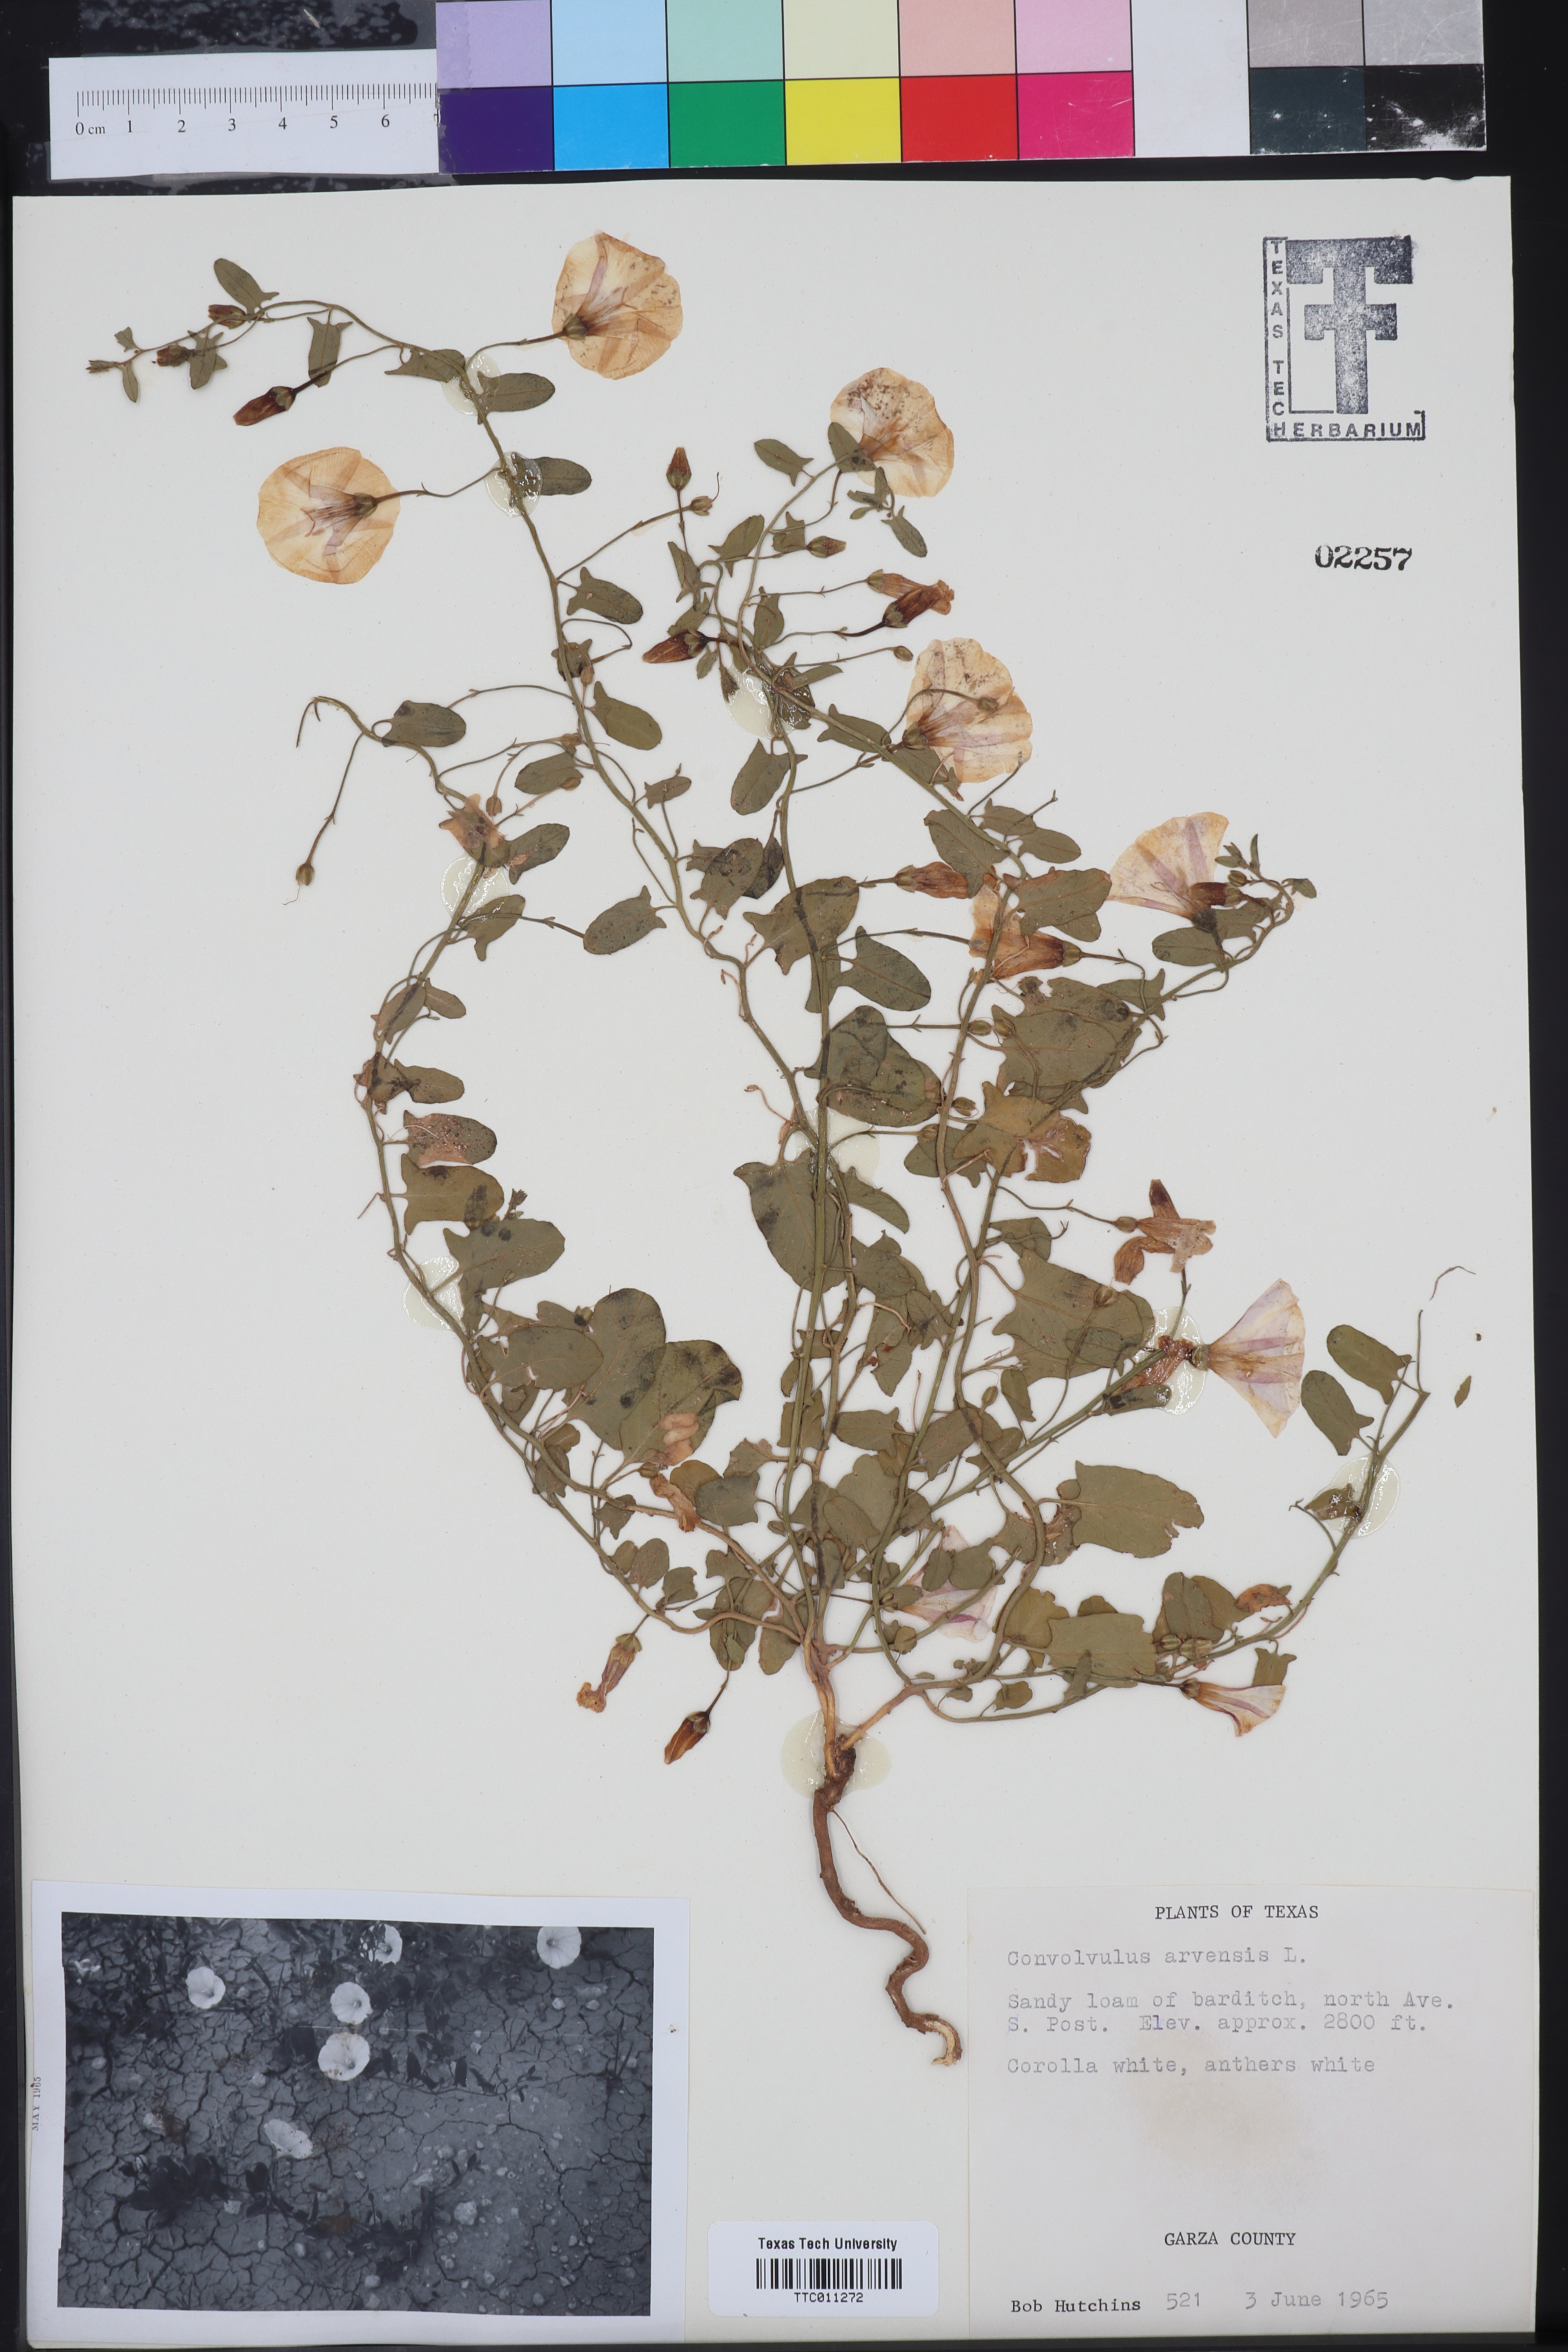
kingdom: Plantae
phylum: Tracheophyta
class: Magnoliopsida
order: Solanales
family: Convolvulaceae
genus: Convolvulus
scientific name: Convolvulus arvensis
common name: Field bindweed
